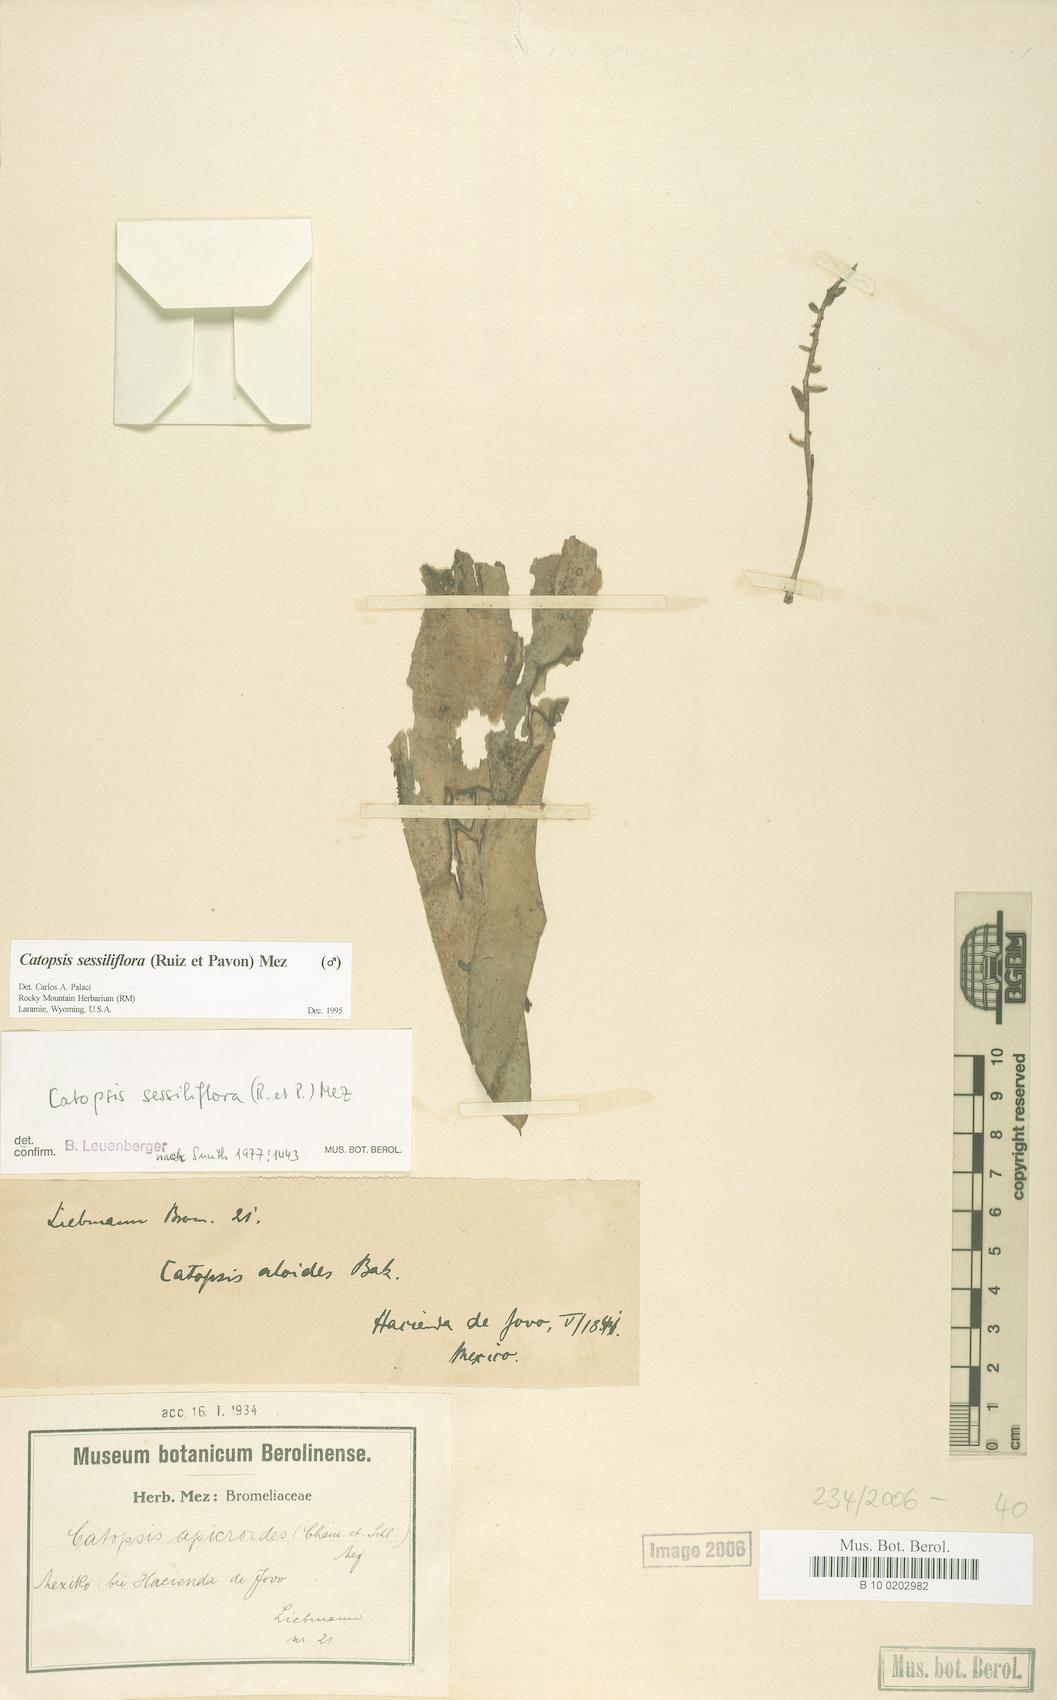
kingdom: Plantae
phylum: Tracheophyta
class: Liliopsida
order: Poales
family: Bromeliaceae
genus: Catopsis
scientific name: Catopsis sessiliflora
